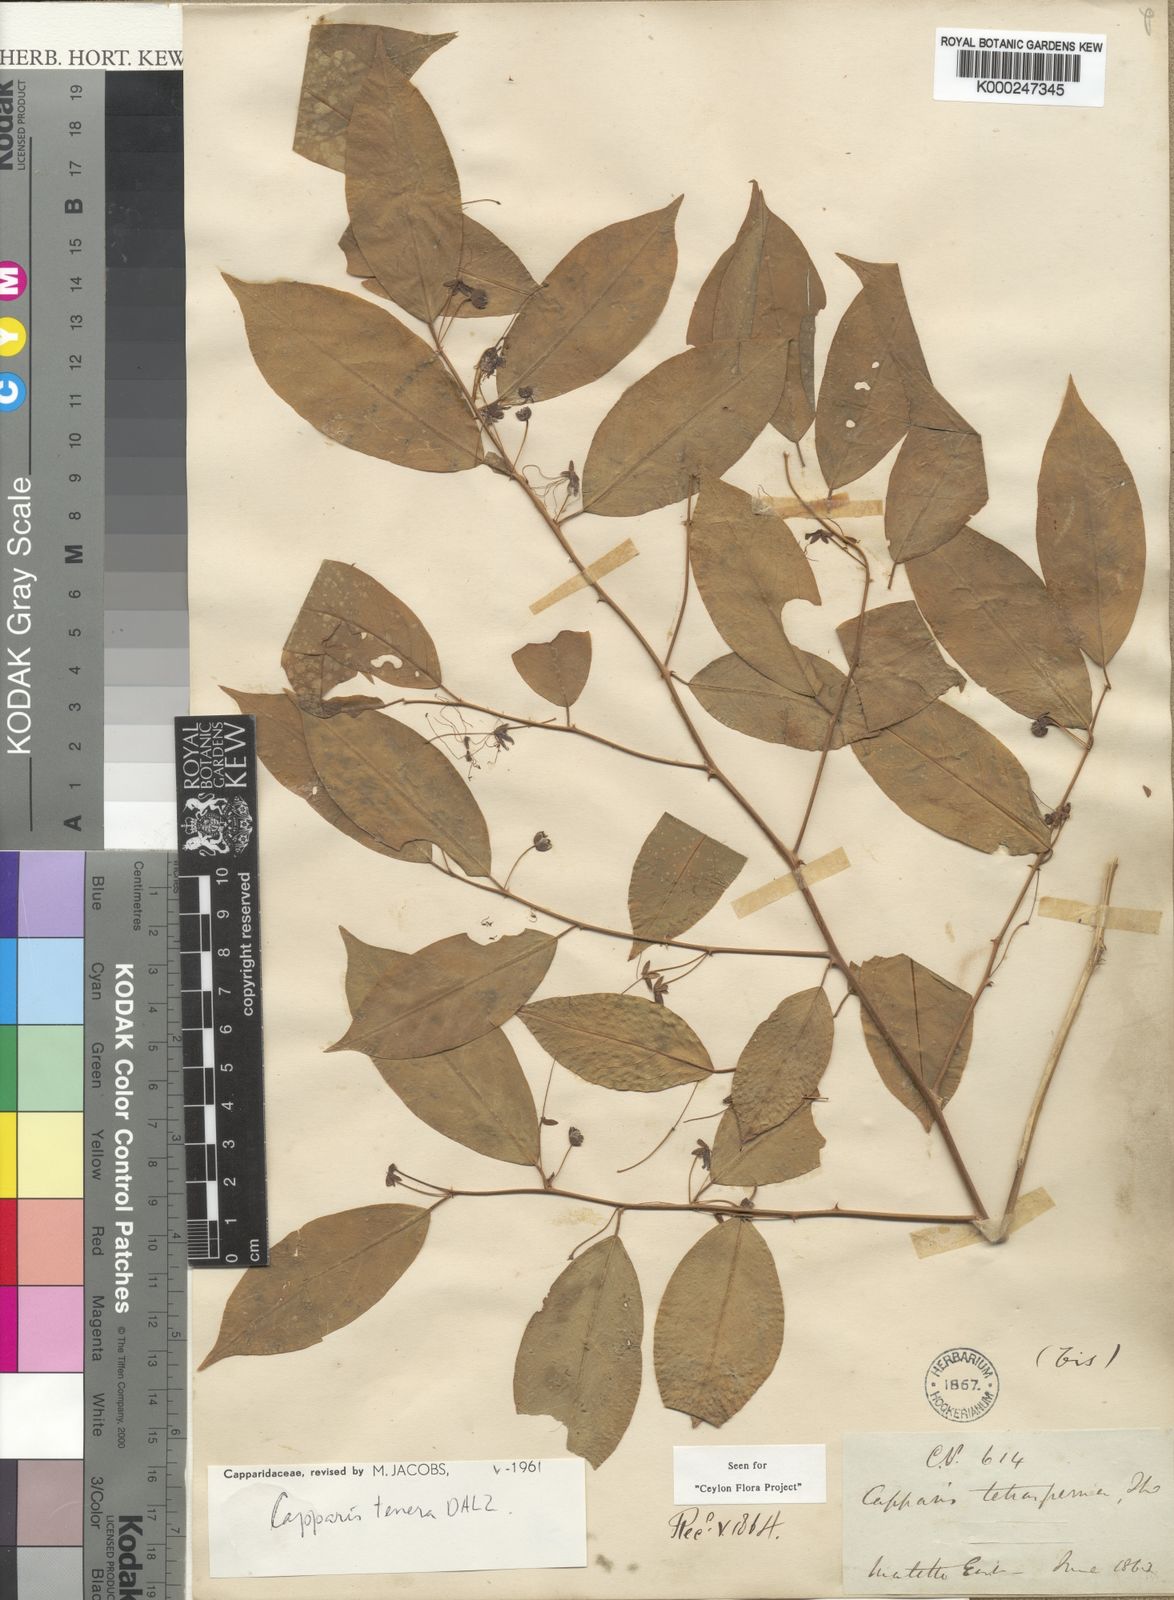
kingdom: Plantae
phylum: Tracheophyta
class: Magnoliopsida
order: Brassicales
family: Capparaceae
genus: Capparis
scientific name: Capparis tenera
